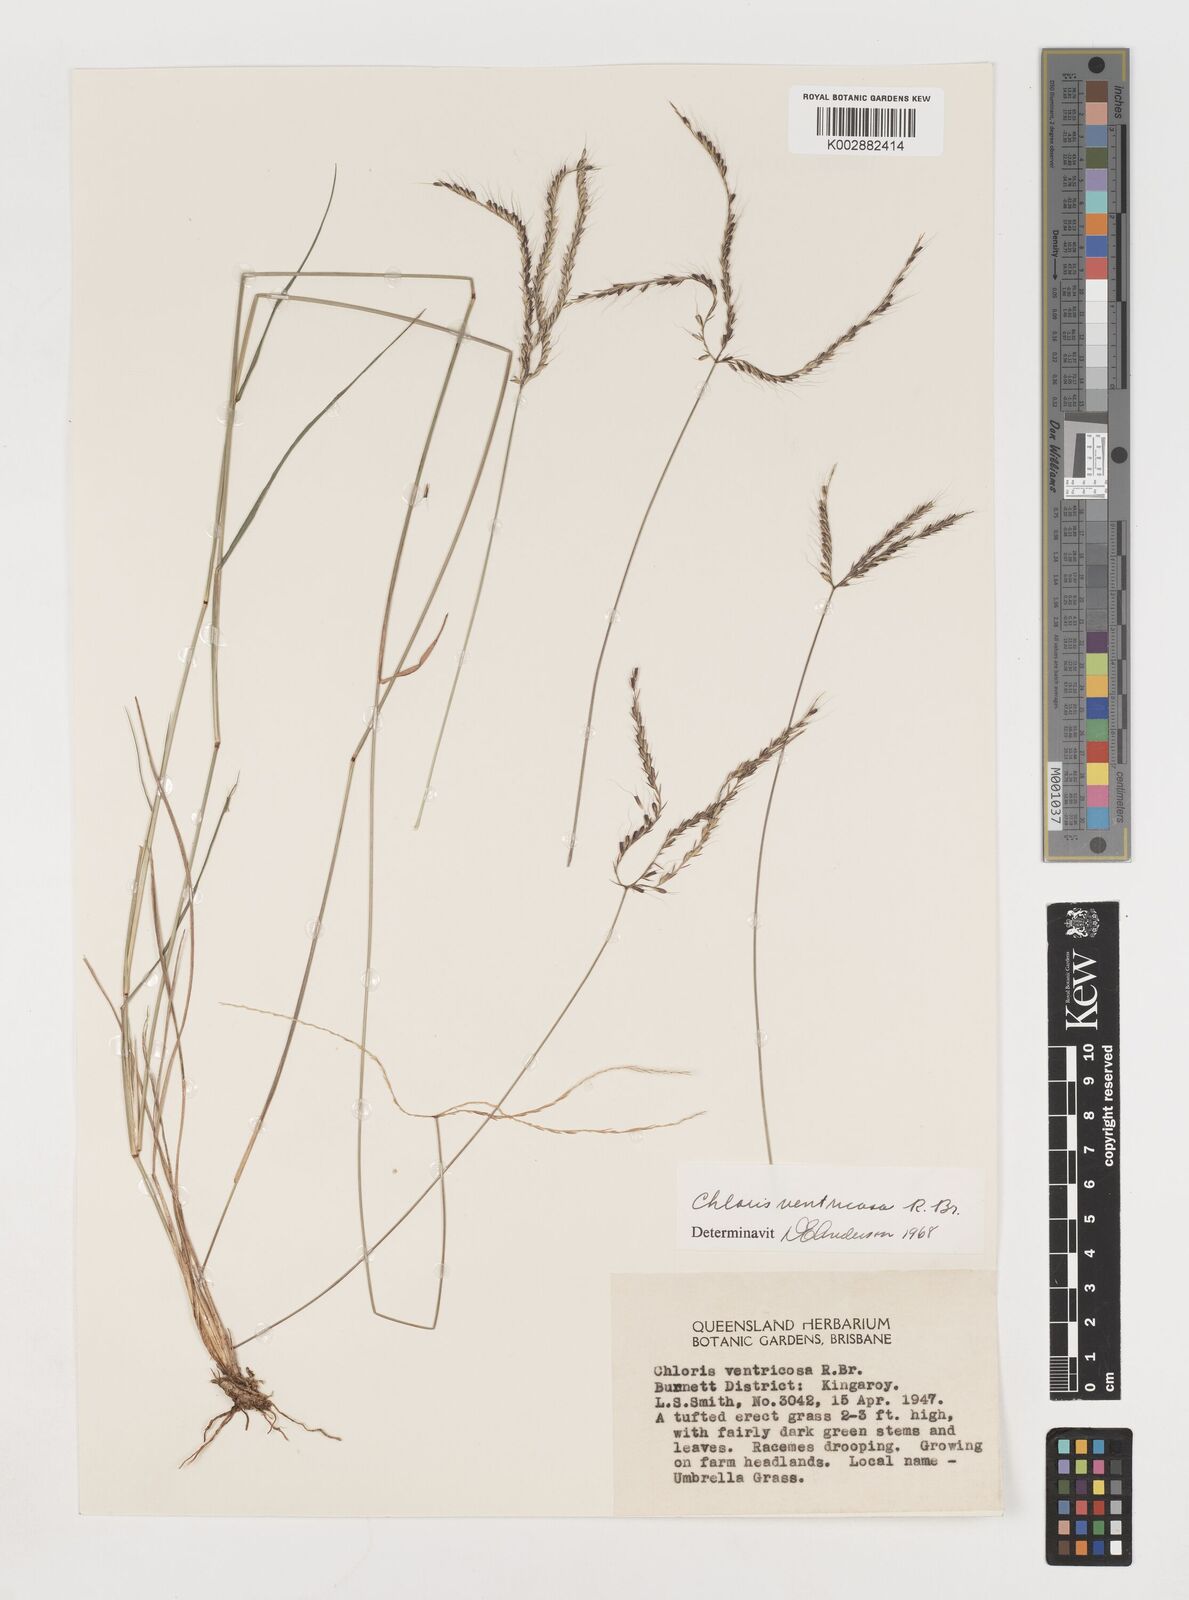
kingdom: Plantae
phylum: Tracheophyta
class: Liliopsida
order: Poales
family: Poaceae
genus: Chloris
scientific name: Chloris ventricosa
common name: Australian windmill grass
